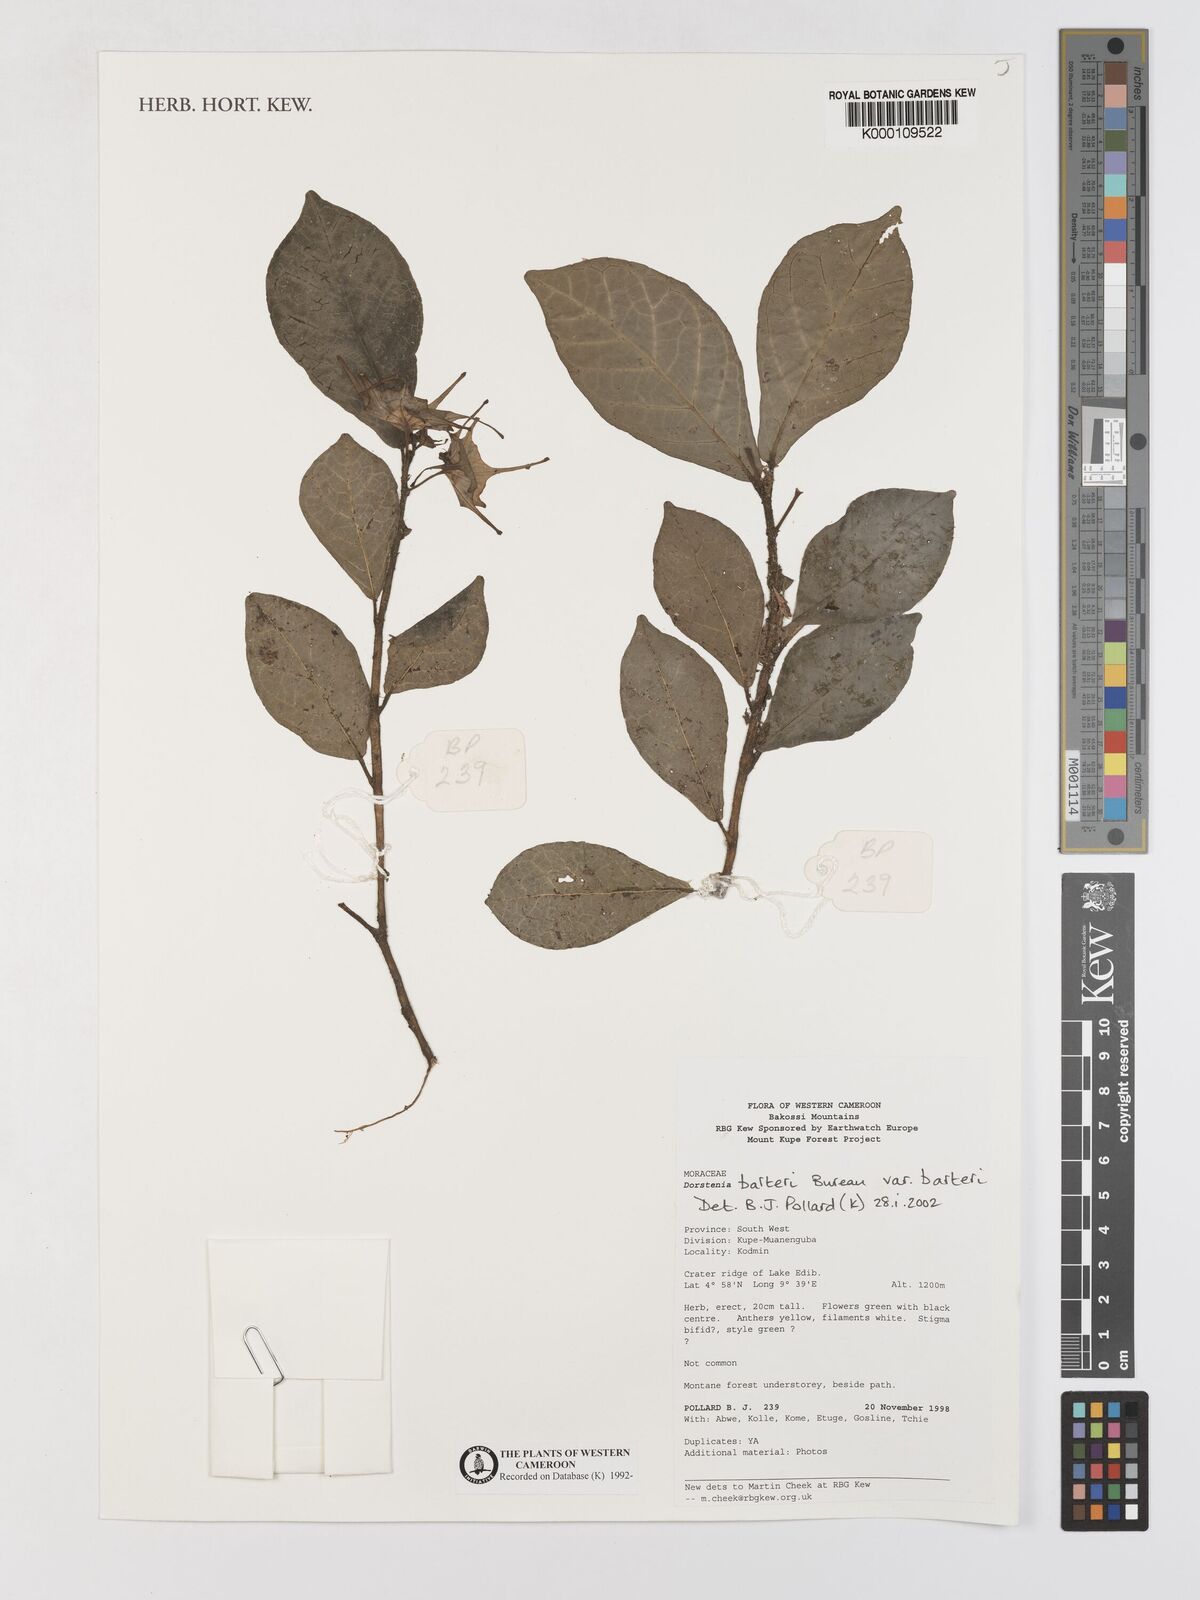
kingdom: Plantae
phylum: Tracheophyta
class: Magnoliopsida
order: Rosales
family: Moraceae
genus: Dorstenia
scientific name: Dorstenia barteri
